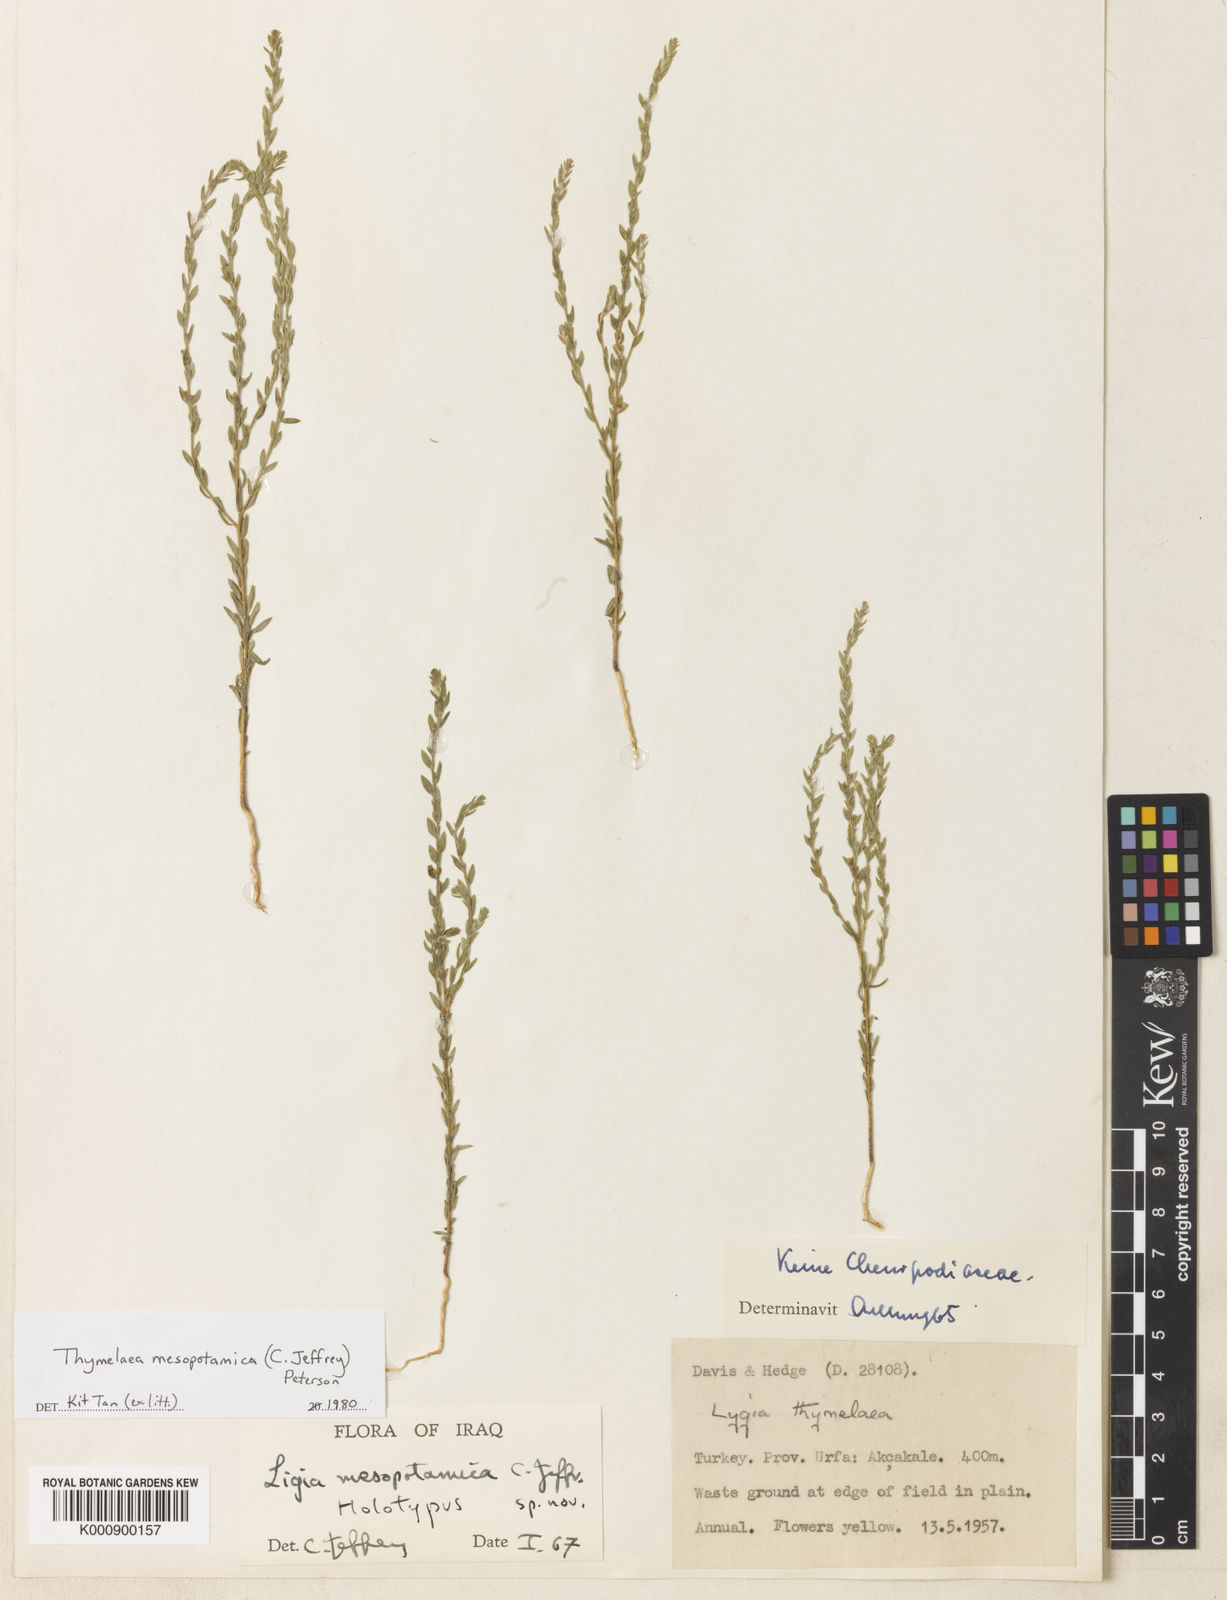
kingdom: Plantae
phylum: Tracheophyta
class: Magnoliopsida
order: Malvales
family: Thymelaeaceae
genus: Thymelaea
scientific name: Thymelaea mesopotamica
